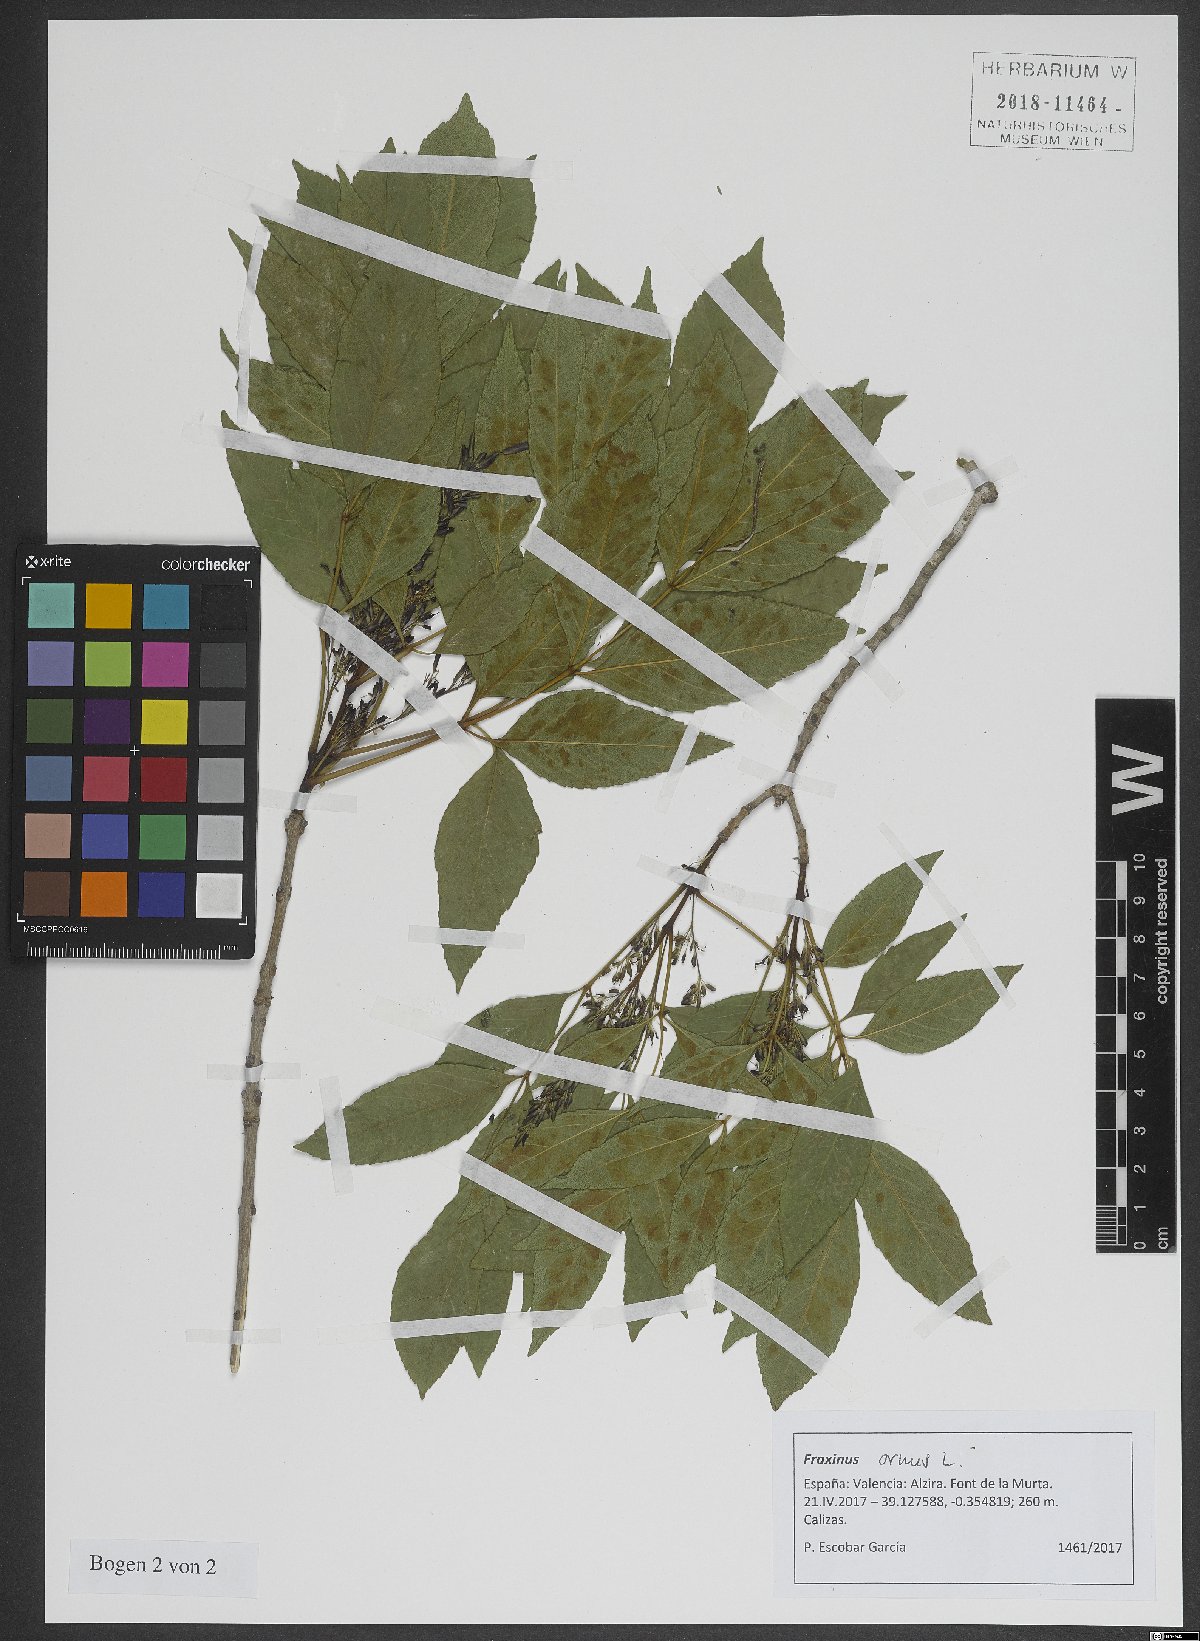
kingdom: Plantae
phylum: Tracheophyta
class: Magnoliopsida
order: Lamiales
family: Oleaceae
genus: Fraxinus
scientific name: Fraxinus ornus
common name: Manna ash
